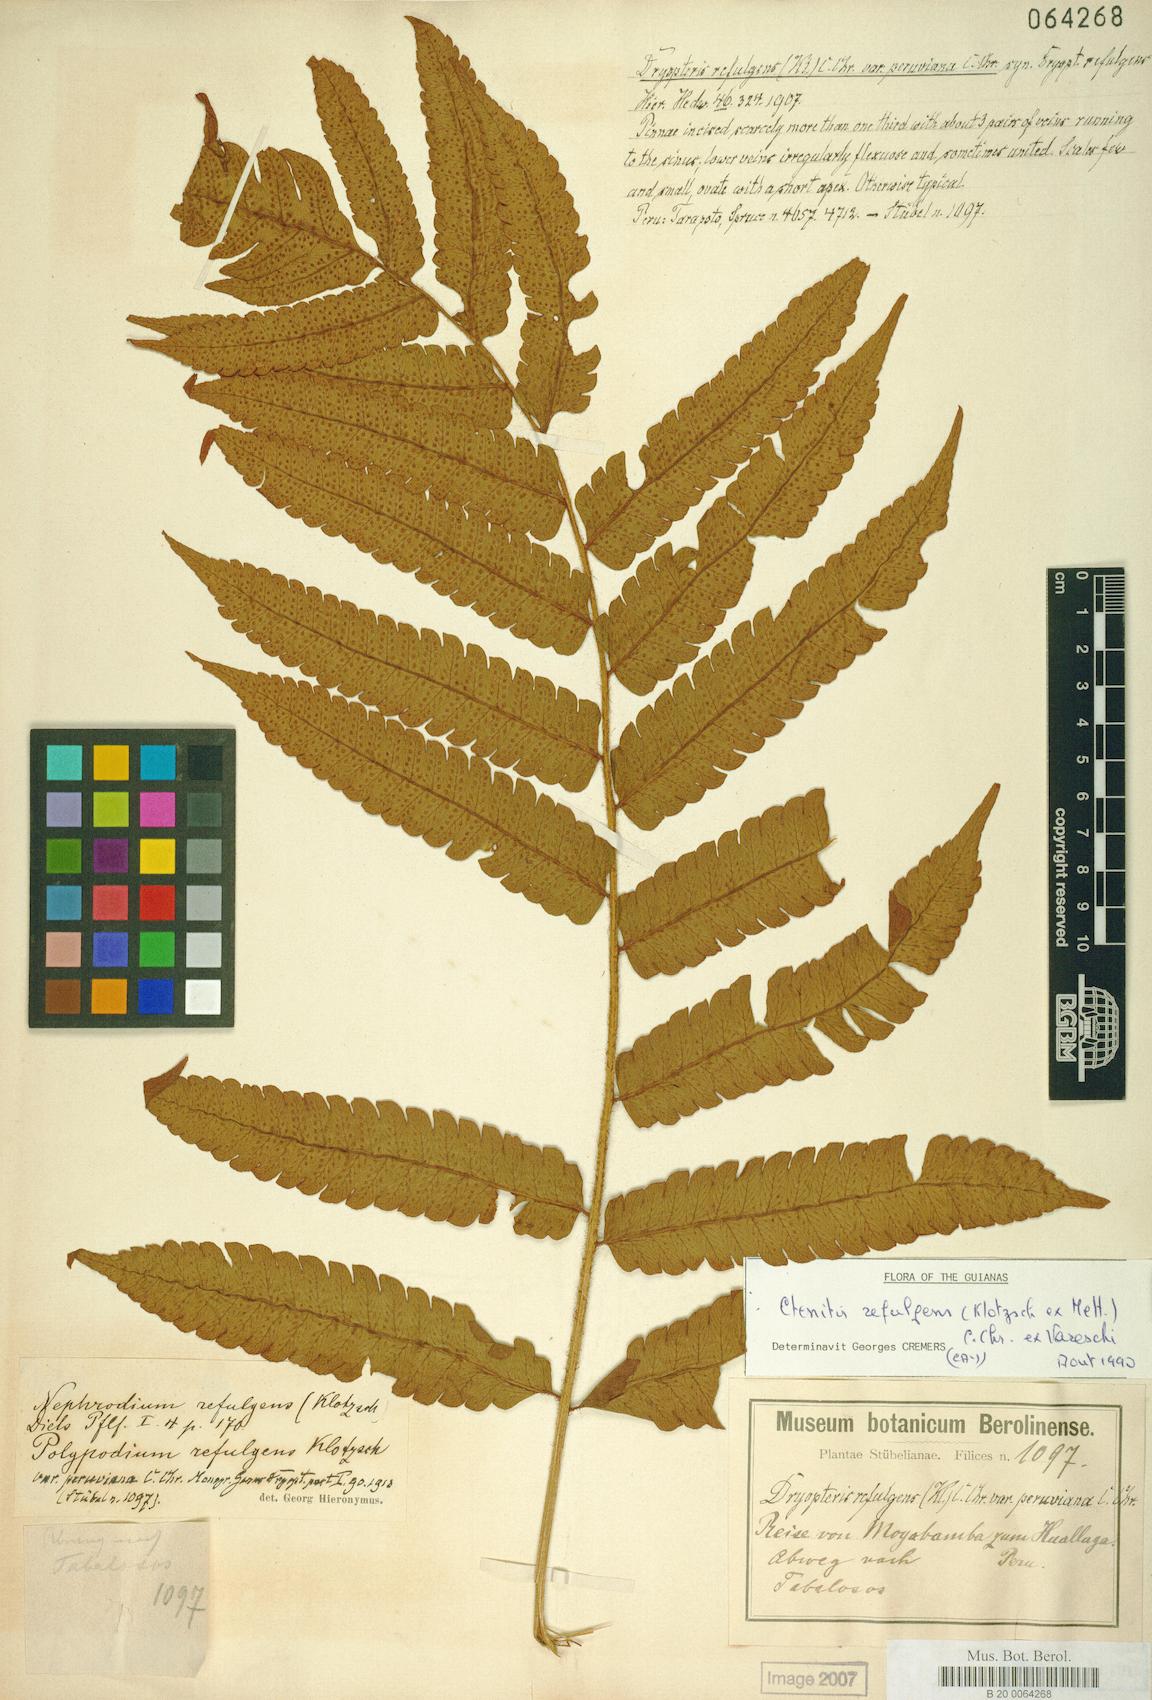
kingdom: Plantae
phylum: Tracheophyta
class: Polypodiopsida
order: Polypodiales
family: Dryopteridaceae
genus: Ctenitis
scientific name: Ctenitis refulgens
